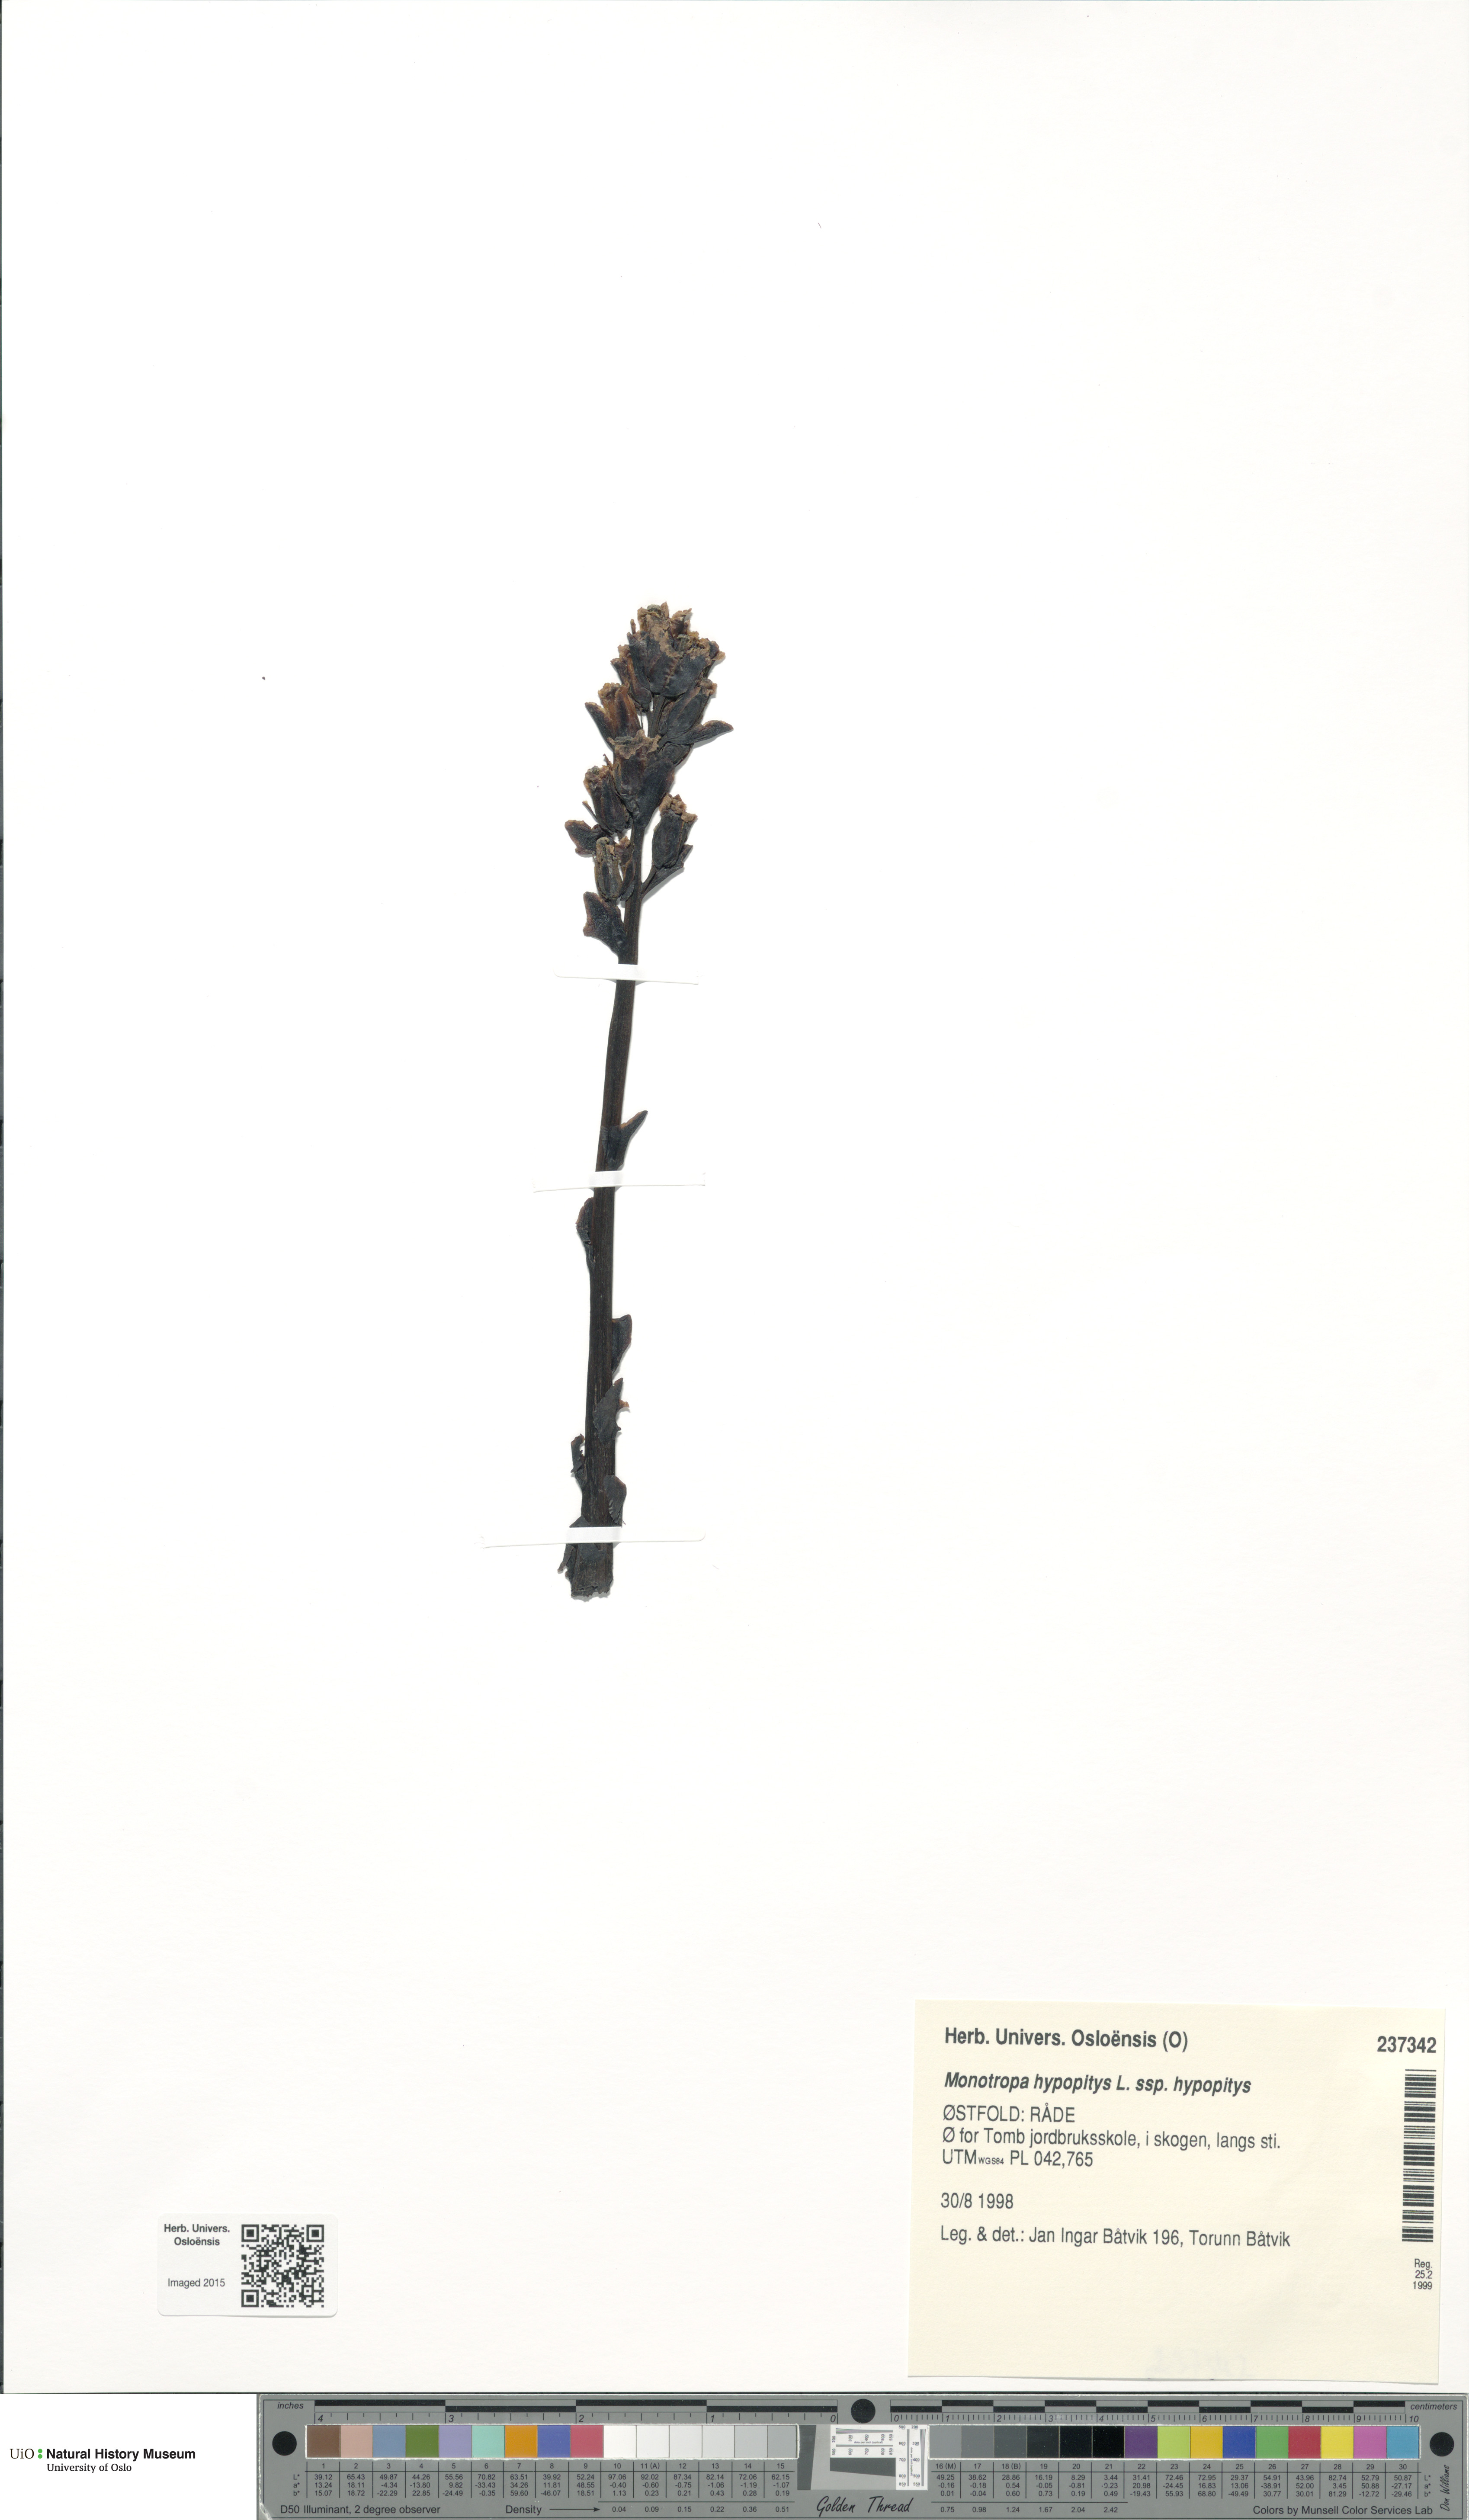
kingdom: Plantae
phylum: Tracheophyta
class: Magnoliopsida
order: Ericales
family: Ericaceae
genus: Hypopitys
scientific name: Hypopitys monotropa
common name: Yellow bird's-nest
